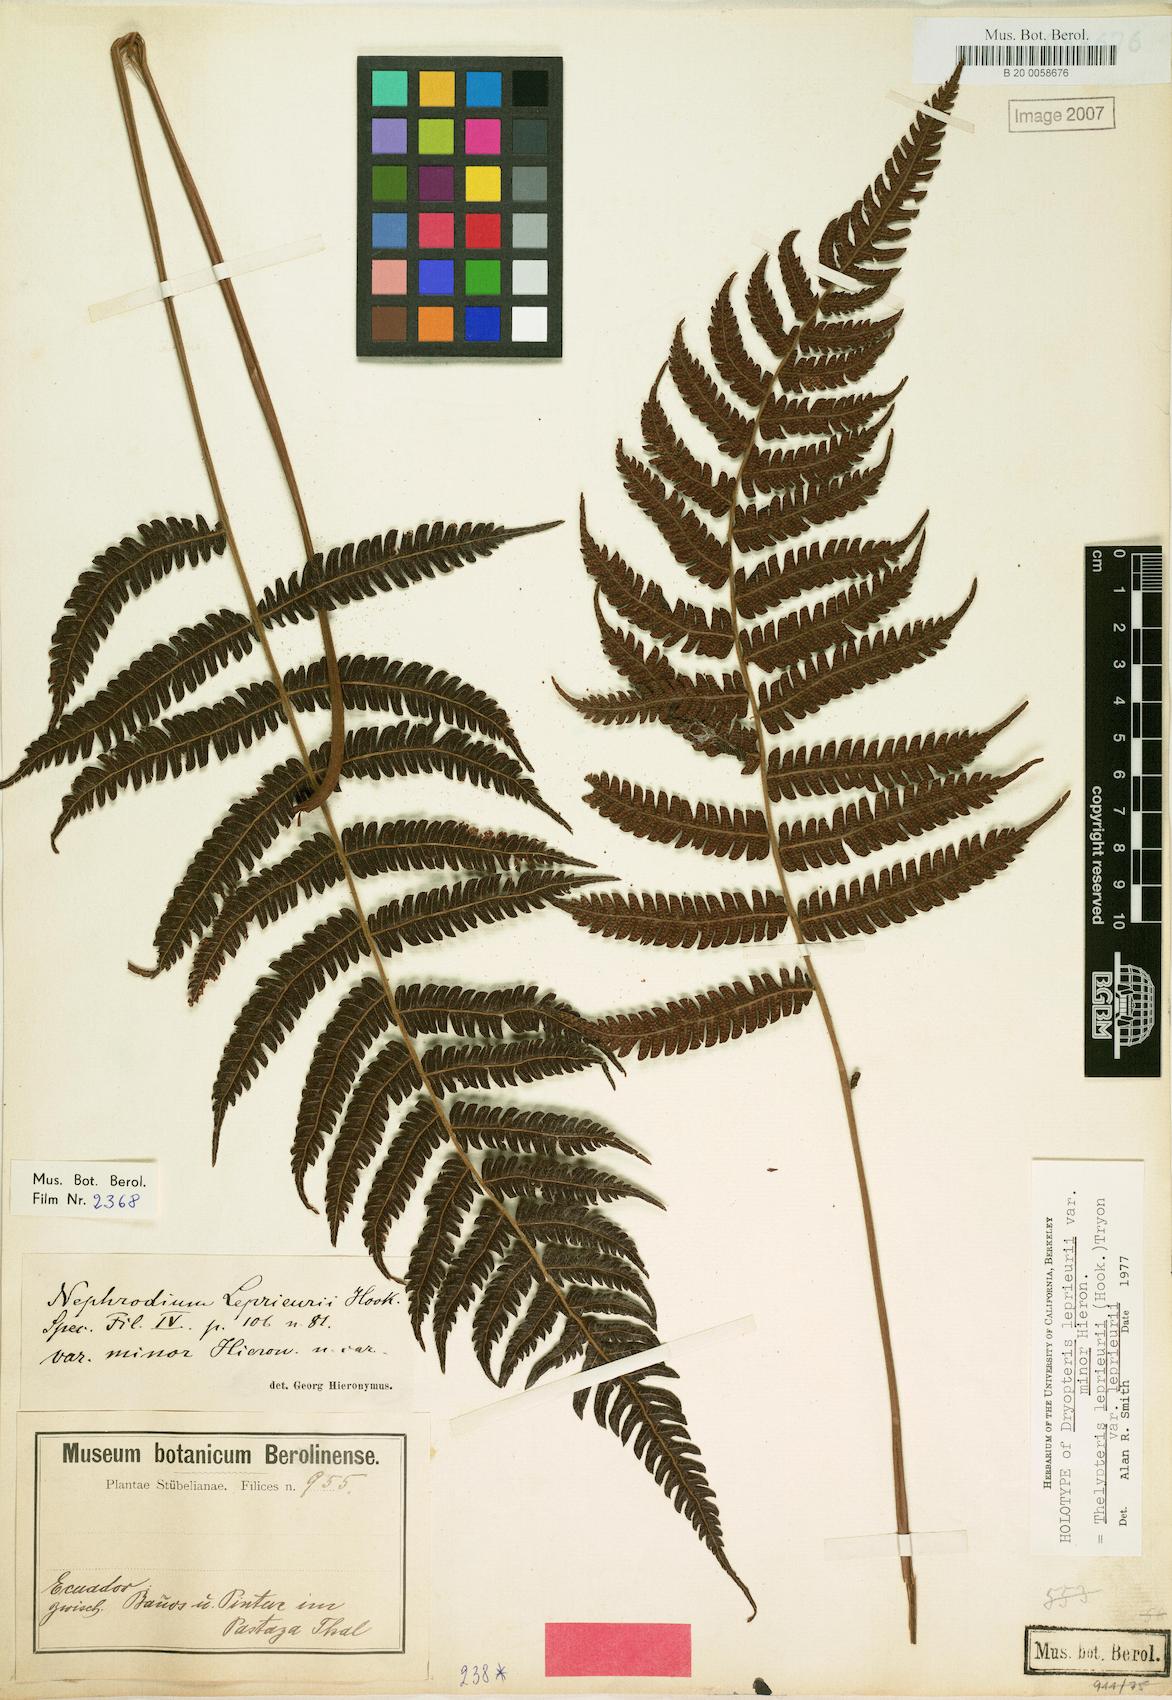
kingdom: Plantae
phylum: Tracheophyta
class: Polypodiopsida
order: Polypodiales
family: Thelypteridaceae
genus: Steiropteris
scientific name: Steiropteris leprieurii
